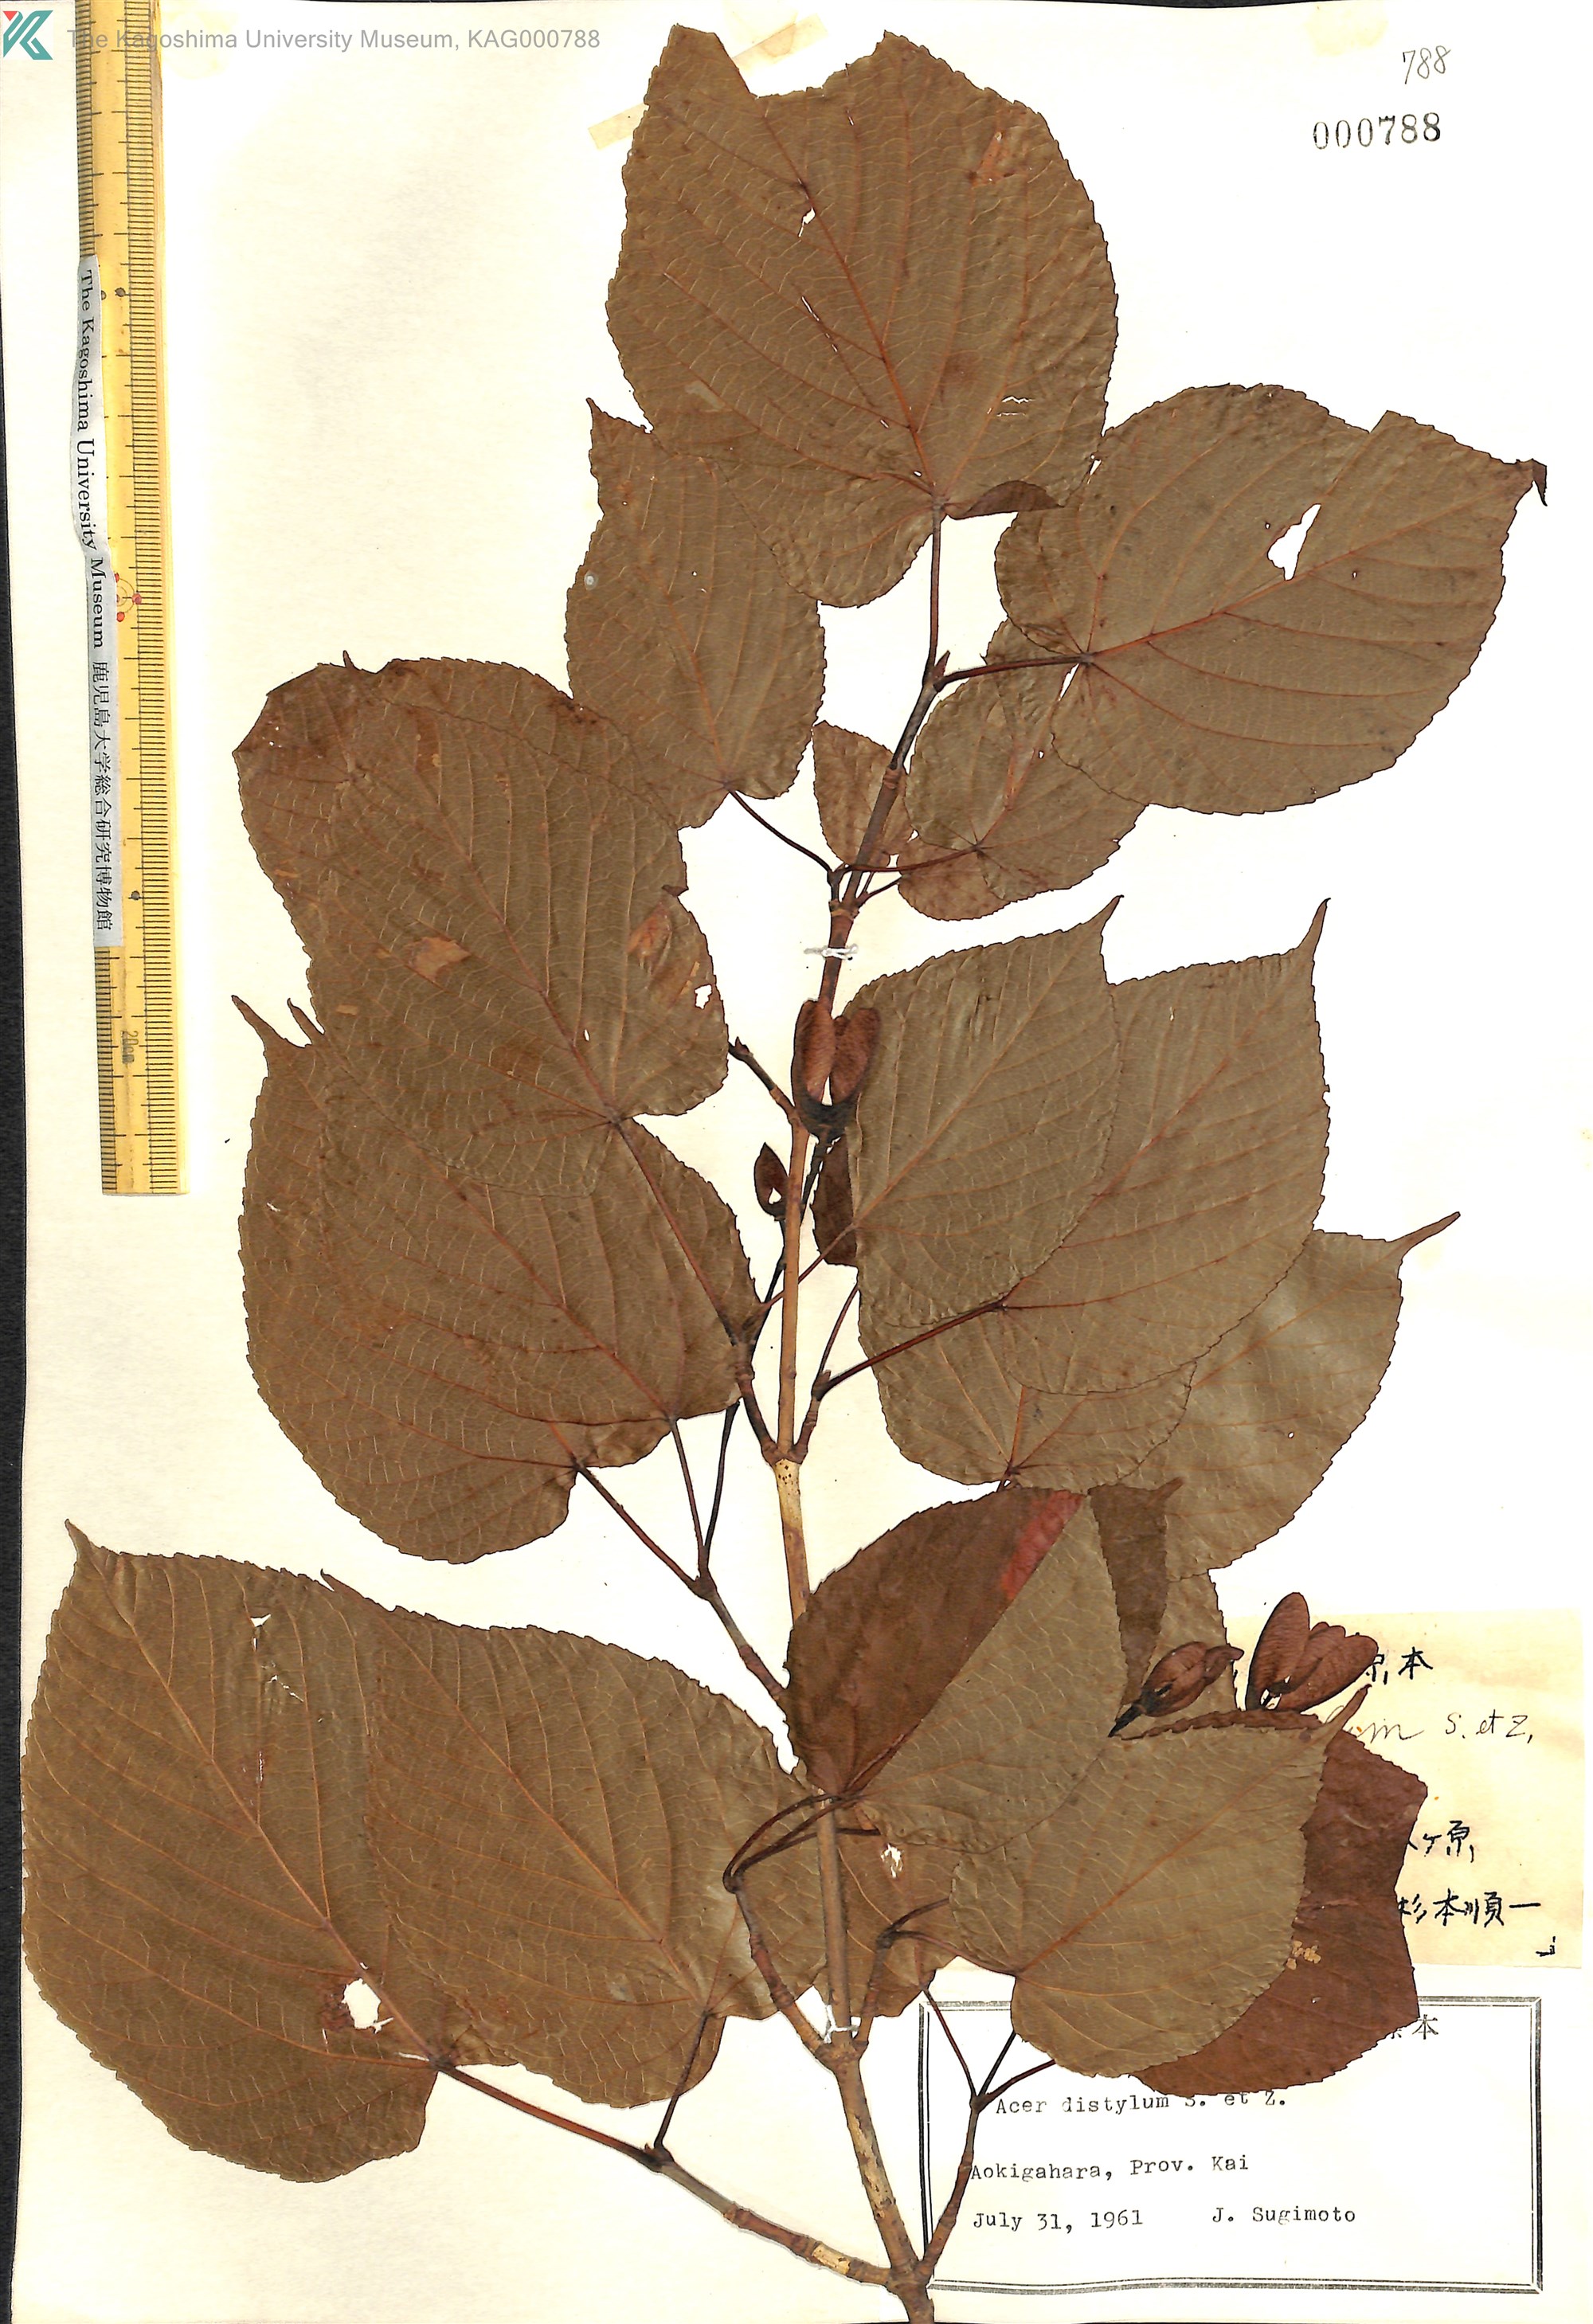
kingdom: Plantae
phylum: Tracheophyta
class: Magnoliopsida
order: Sapindales
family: Sapindaceae
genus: Acer
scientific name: Acer distylum
